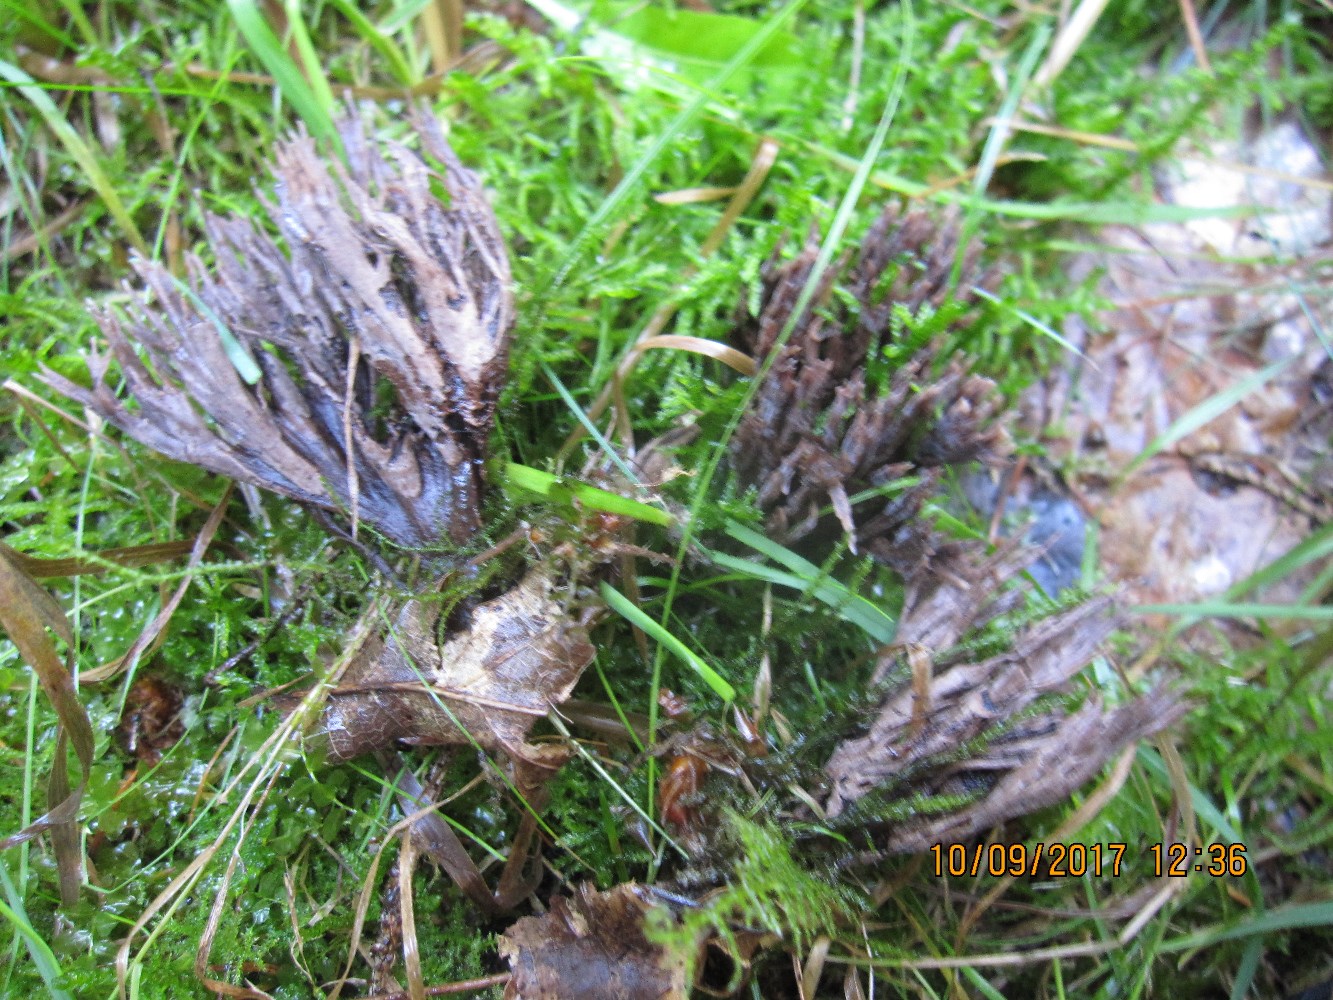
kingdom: Fungi
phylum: Basidiomycota
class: Agaricomycetes
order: Thelephorales
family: Thelephoraceae
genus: Thelephora
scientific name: Thelephora palmata
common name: grenet frynsesvamp
